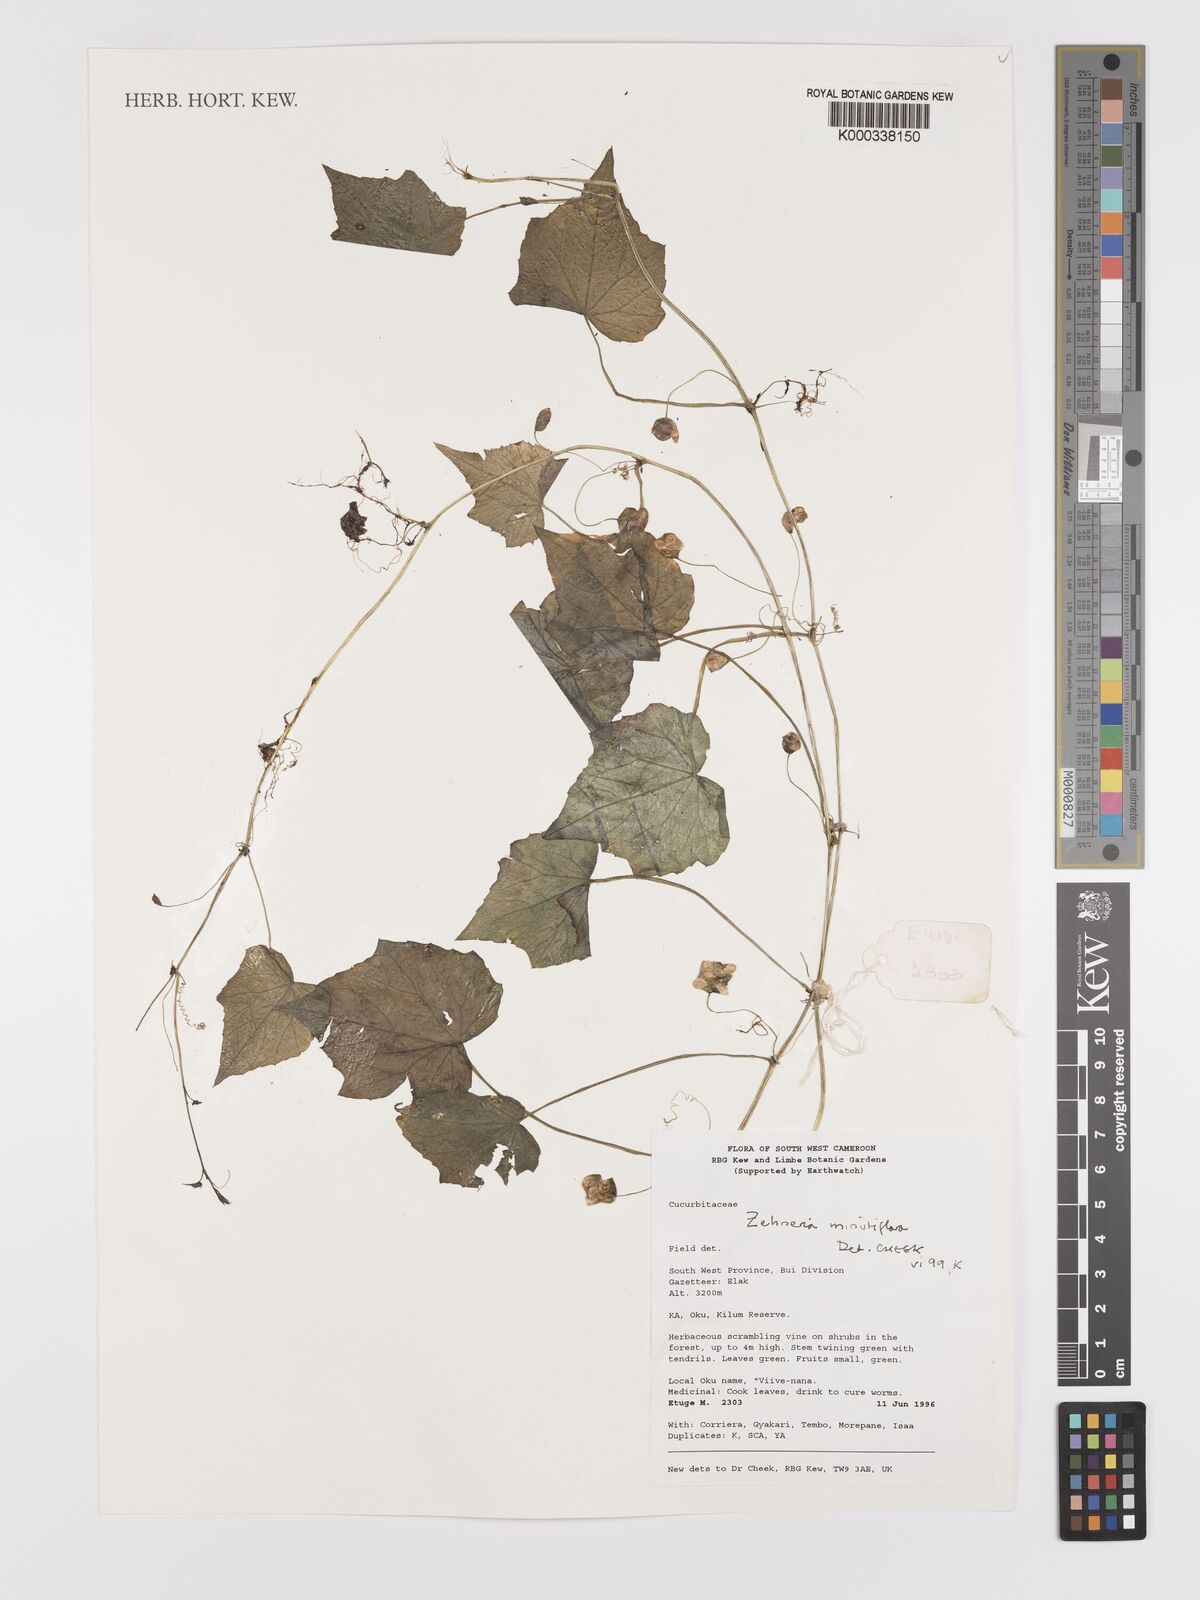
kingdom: Plantae
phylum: Tracheophyta
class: Magnoliopsida
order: Cucurbitales
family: Cucurbitaceae
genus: Zehneria
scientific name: Zehneria minutiflora
